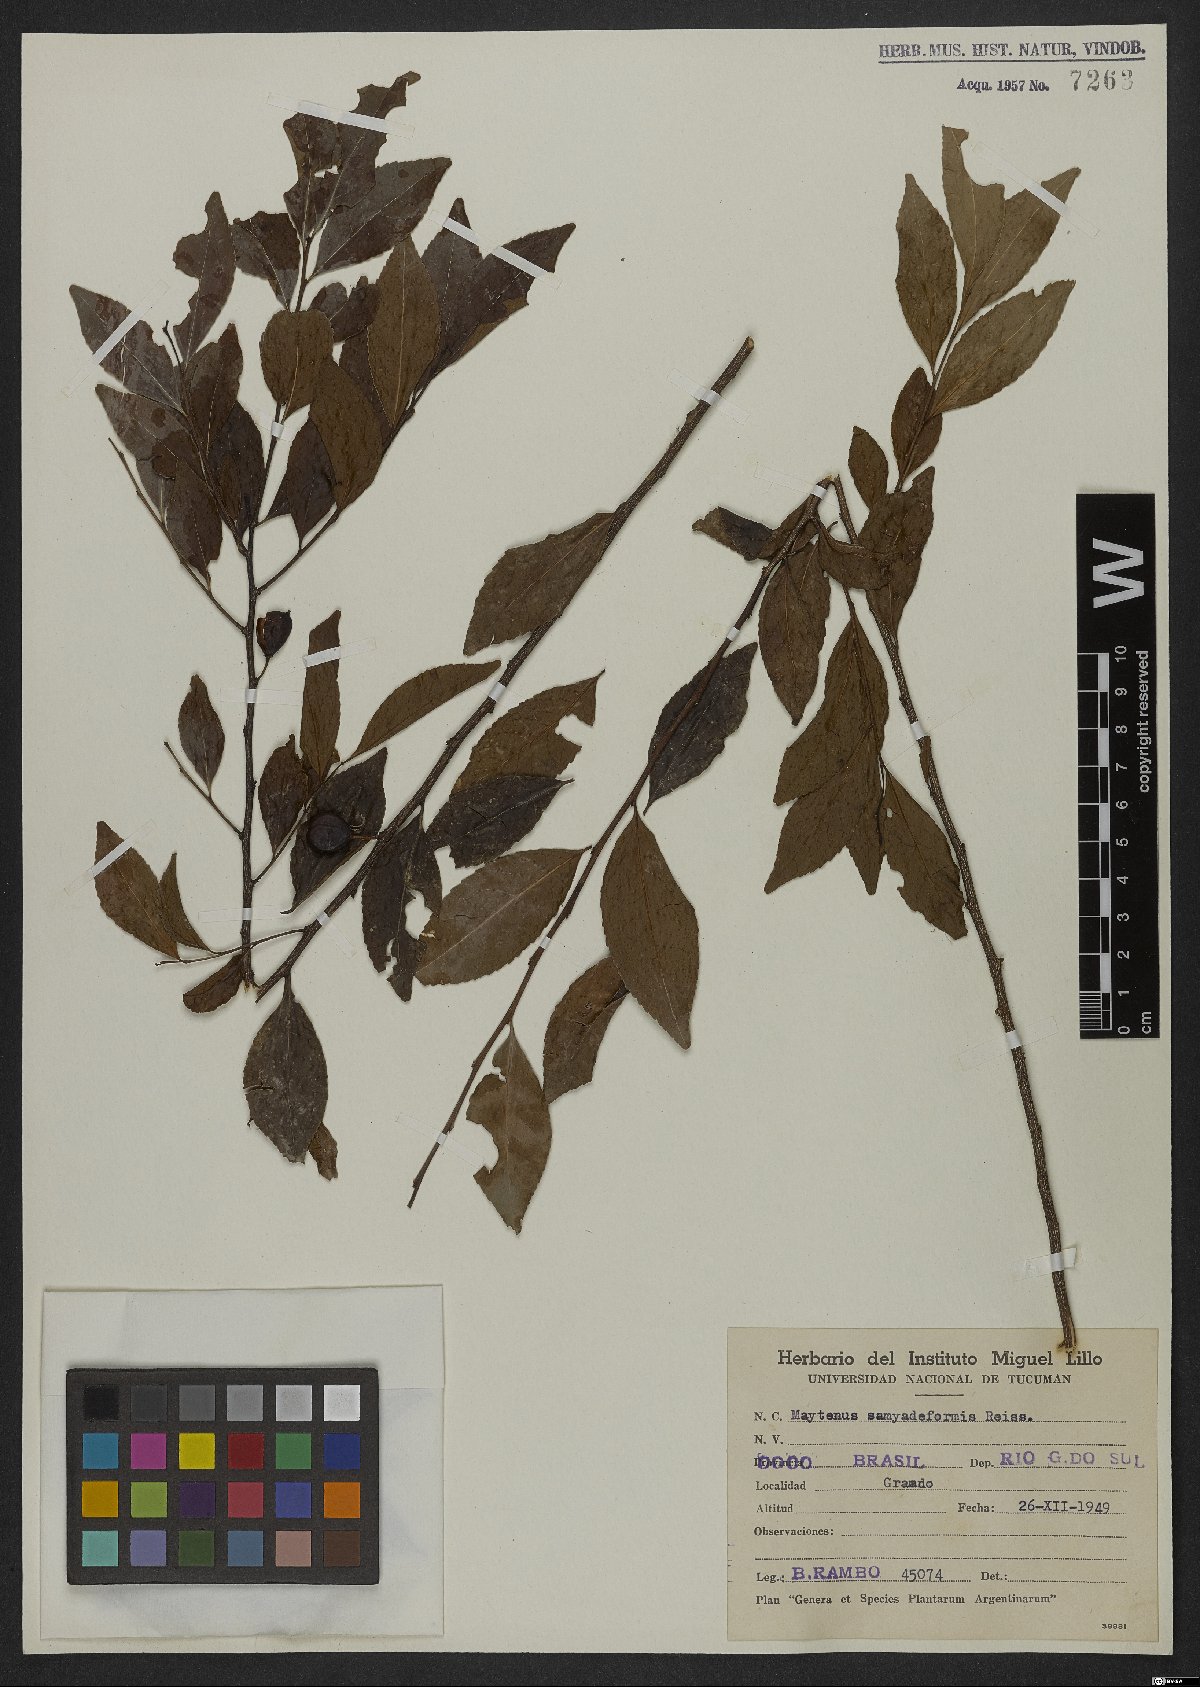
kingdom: Plantae
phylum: Tracheophyta
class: Magnoliopsida
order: Celastrales
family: Celastraceae
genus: Monteverdia
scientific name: Monteverdia samydiformis
